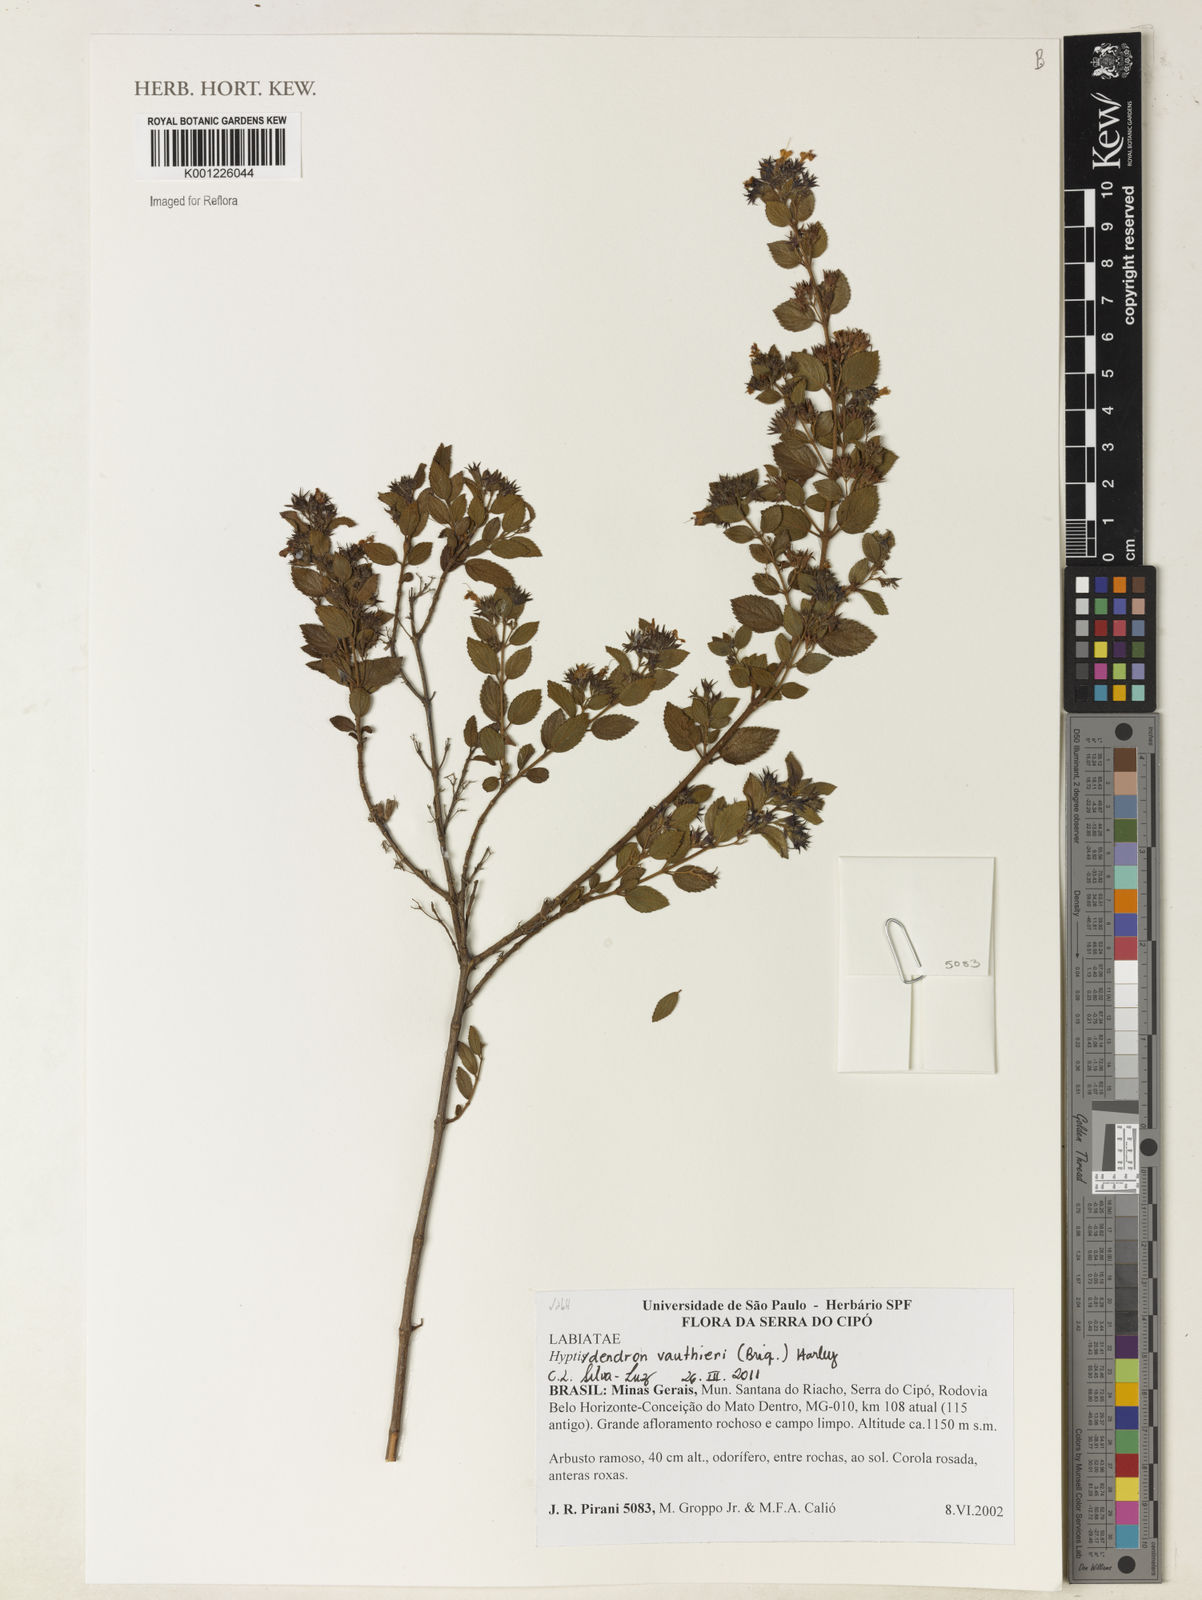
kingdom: Plantae
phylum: Tracheophyta
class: Magnoliopsida
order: Lamiales
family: Lamiaceae
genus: Hyptidendron
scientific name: Hyptidendron vauthieri
